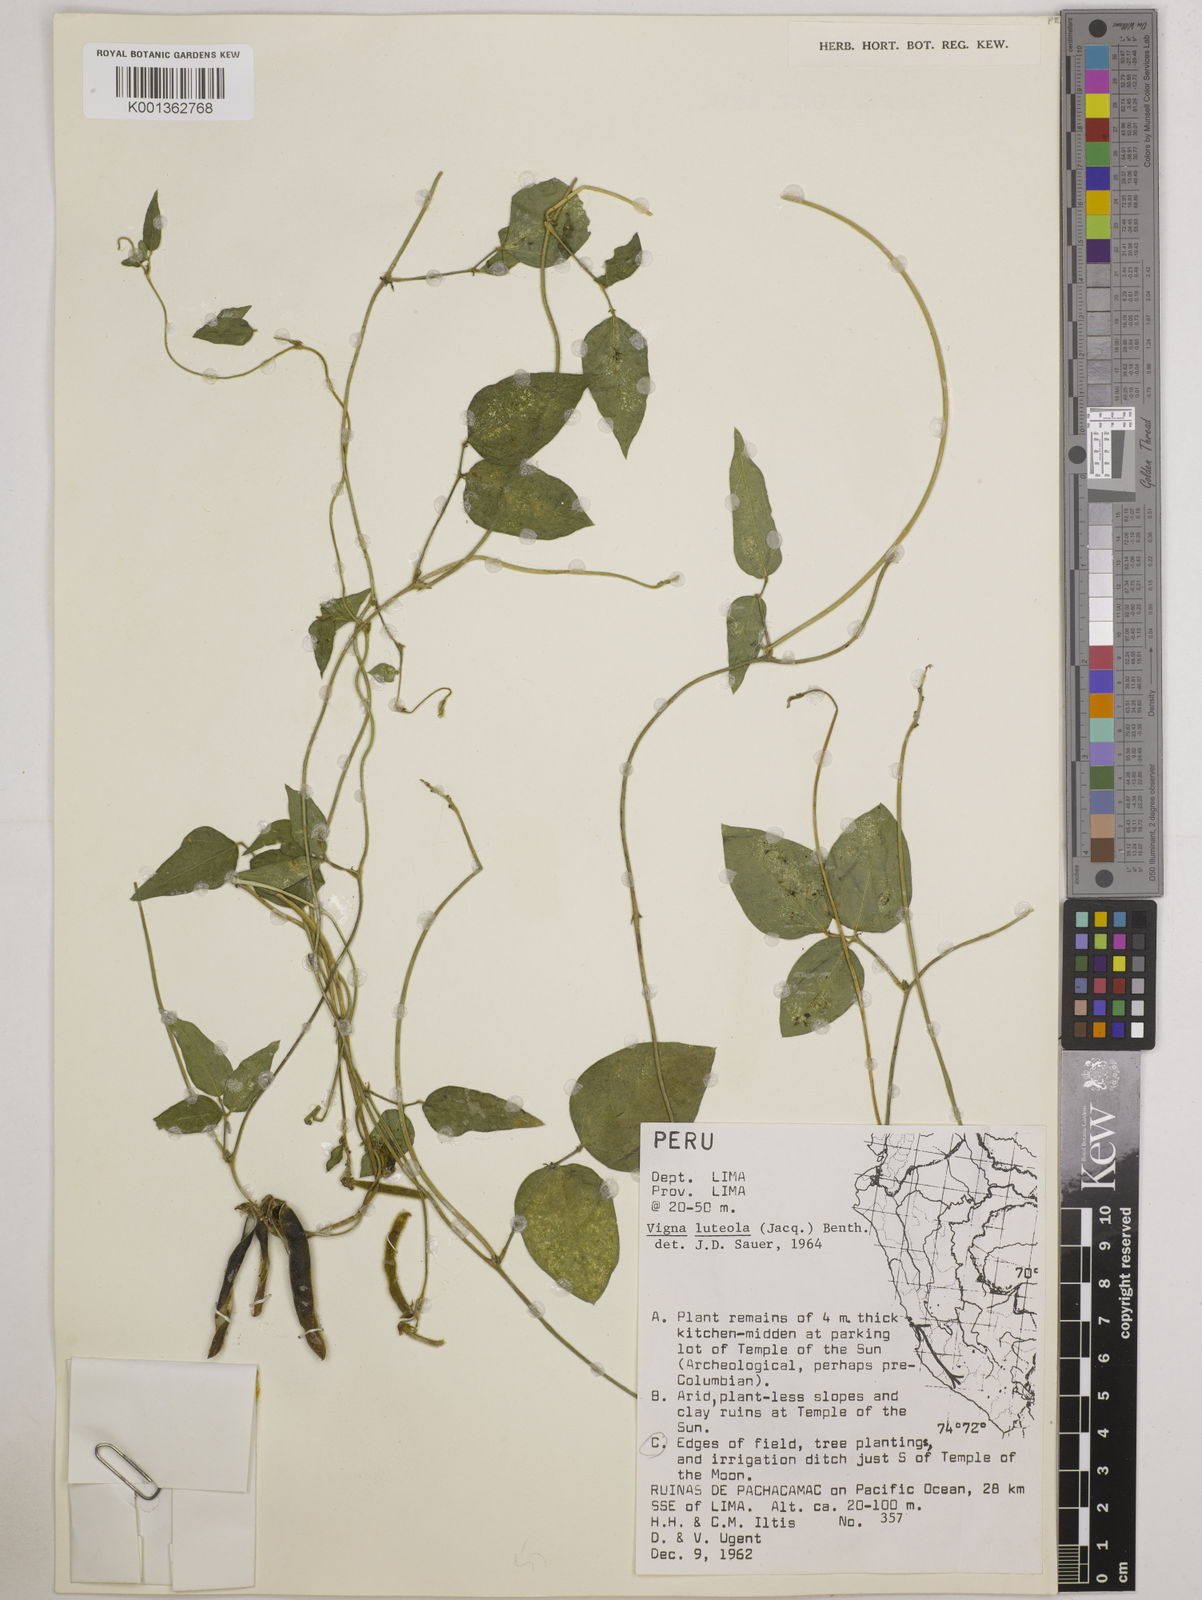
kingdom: Plantae
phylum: Tracheophyta
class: Magnoliopsida
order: Fabales
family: Fabaceae
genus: Vigna
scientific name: Vigna luteola
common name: Hairypod cowpea
